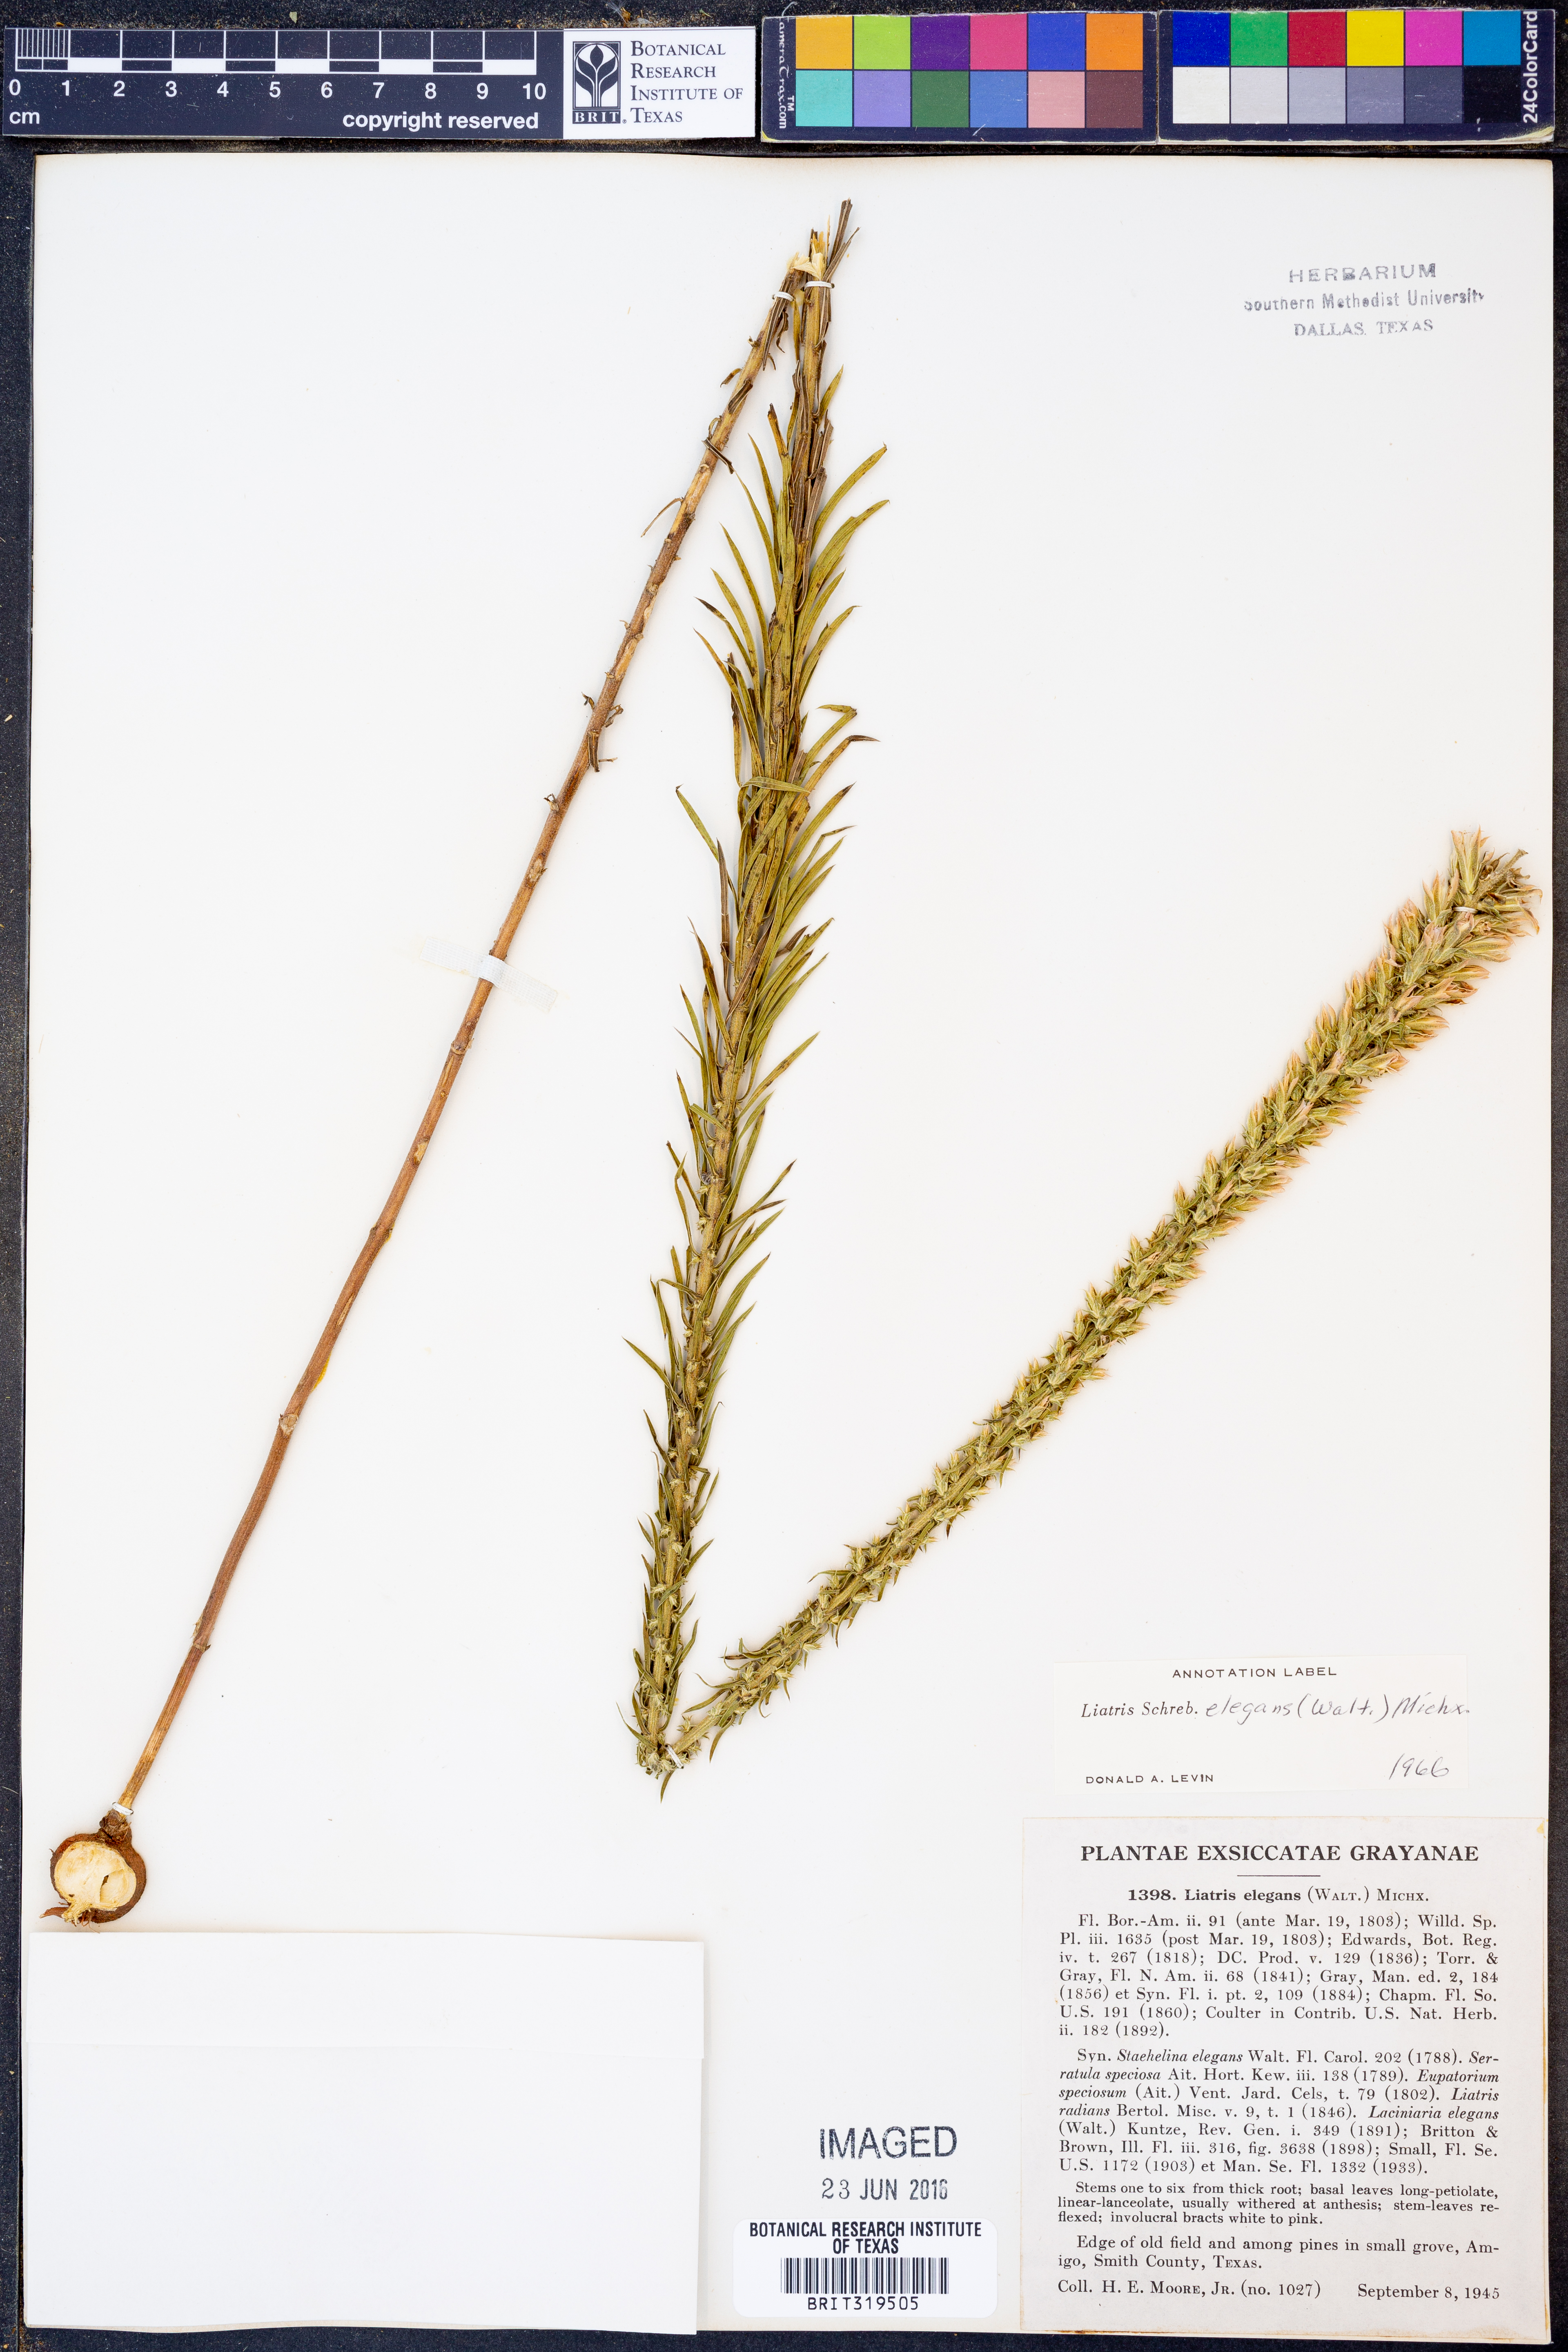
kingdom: Plantae
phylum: Tracheophyta
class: Magnoliopsida
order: Asterales
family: Asteraceae
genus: Liatris
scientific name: Liatris elegans
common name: Pinkscale gayfeather
